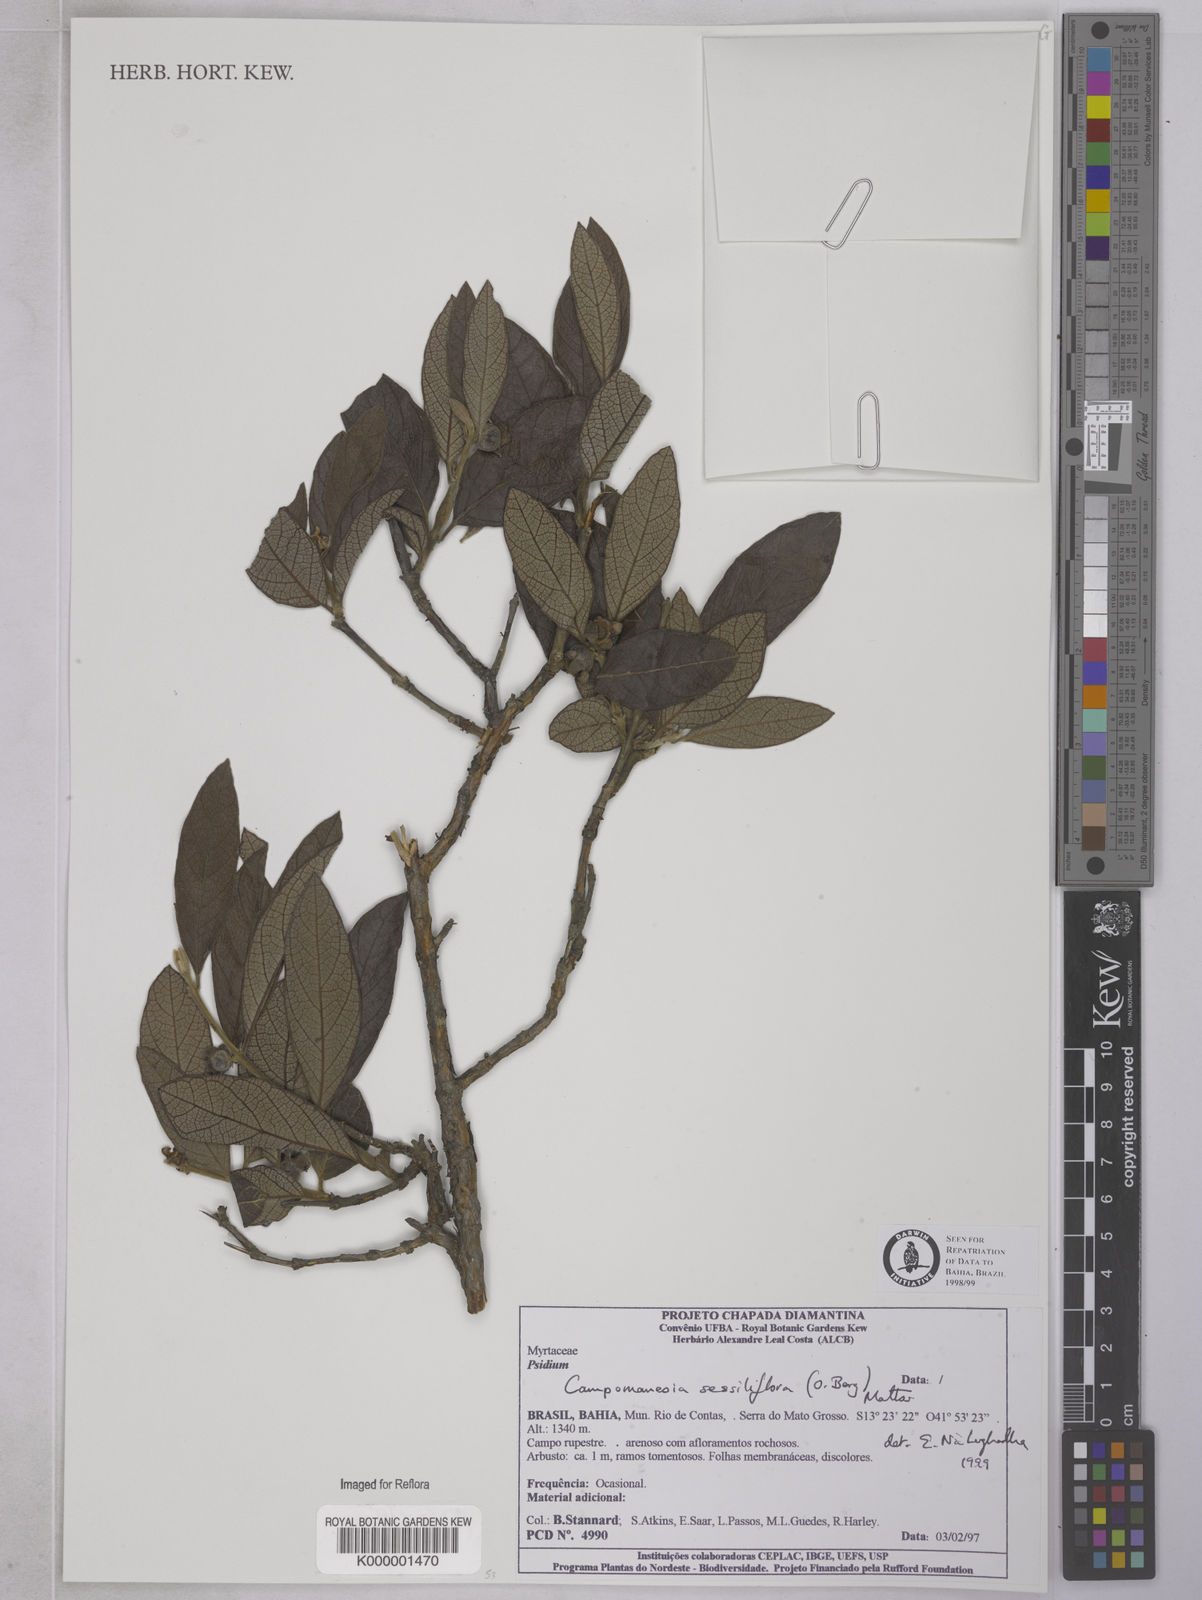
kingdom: Plantae
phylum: Tracheophyta
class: Magnoliopsida
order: Myrtales
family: Myrtaceae
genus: Campomanesia
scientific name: Campomanesia sessiliflora
